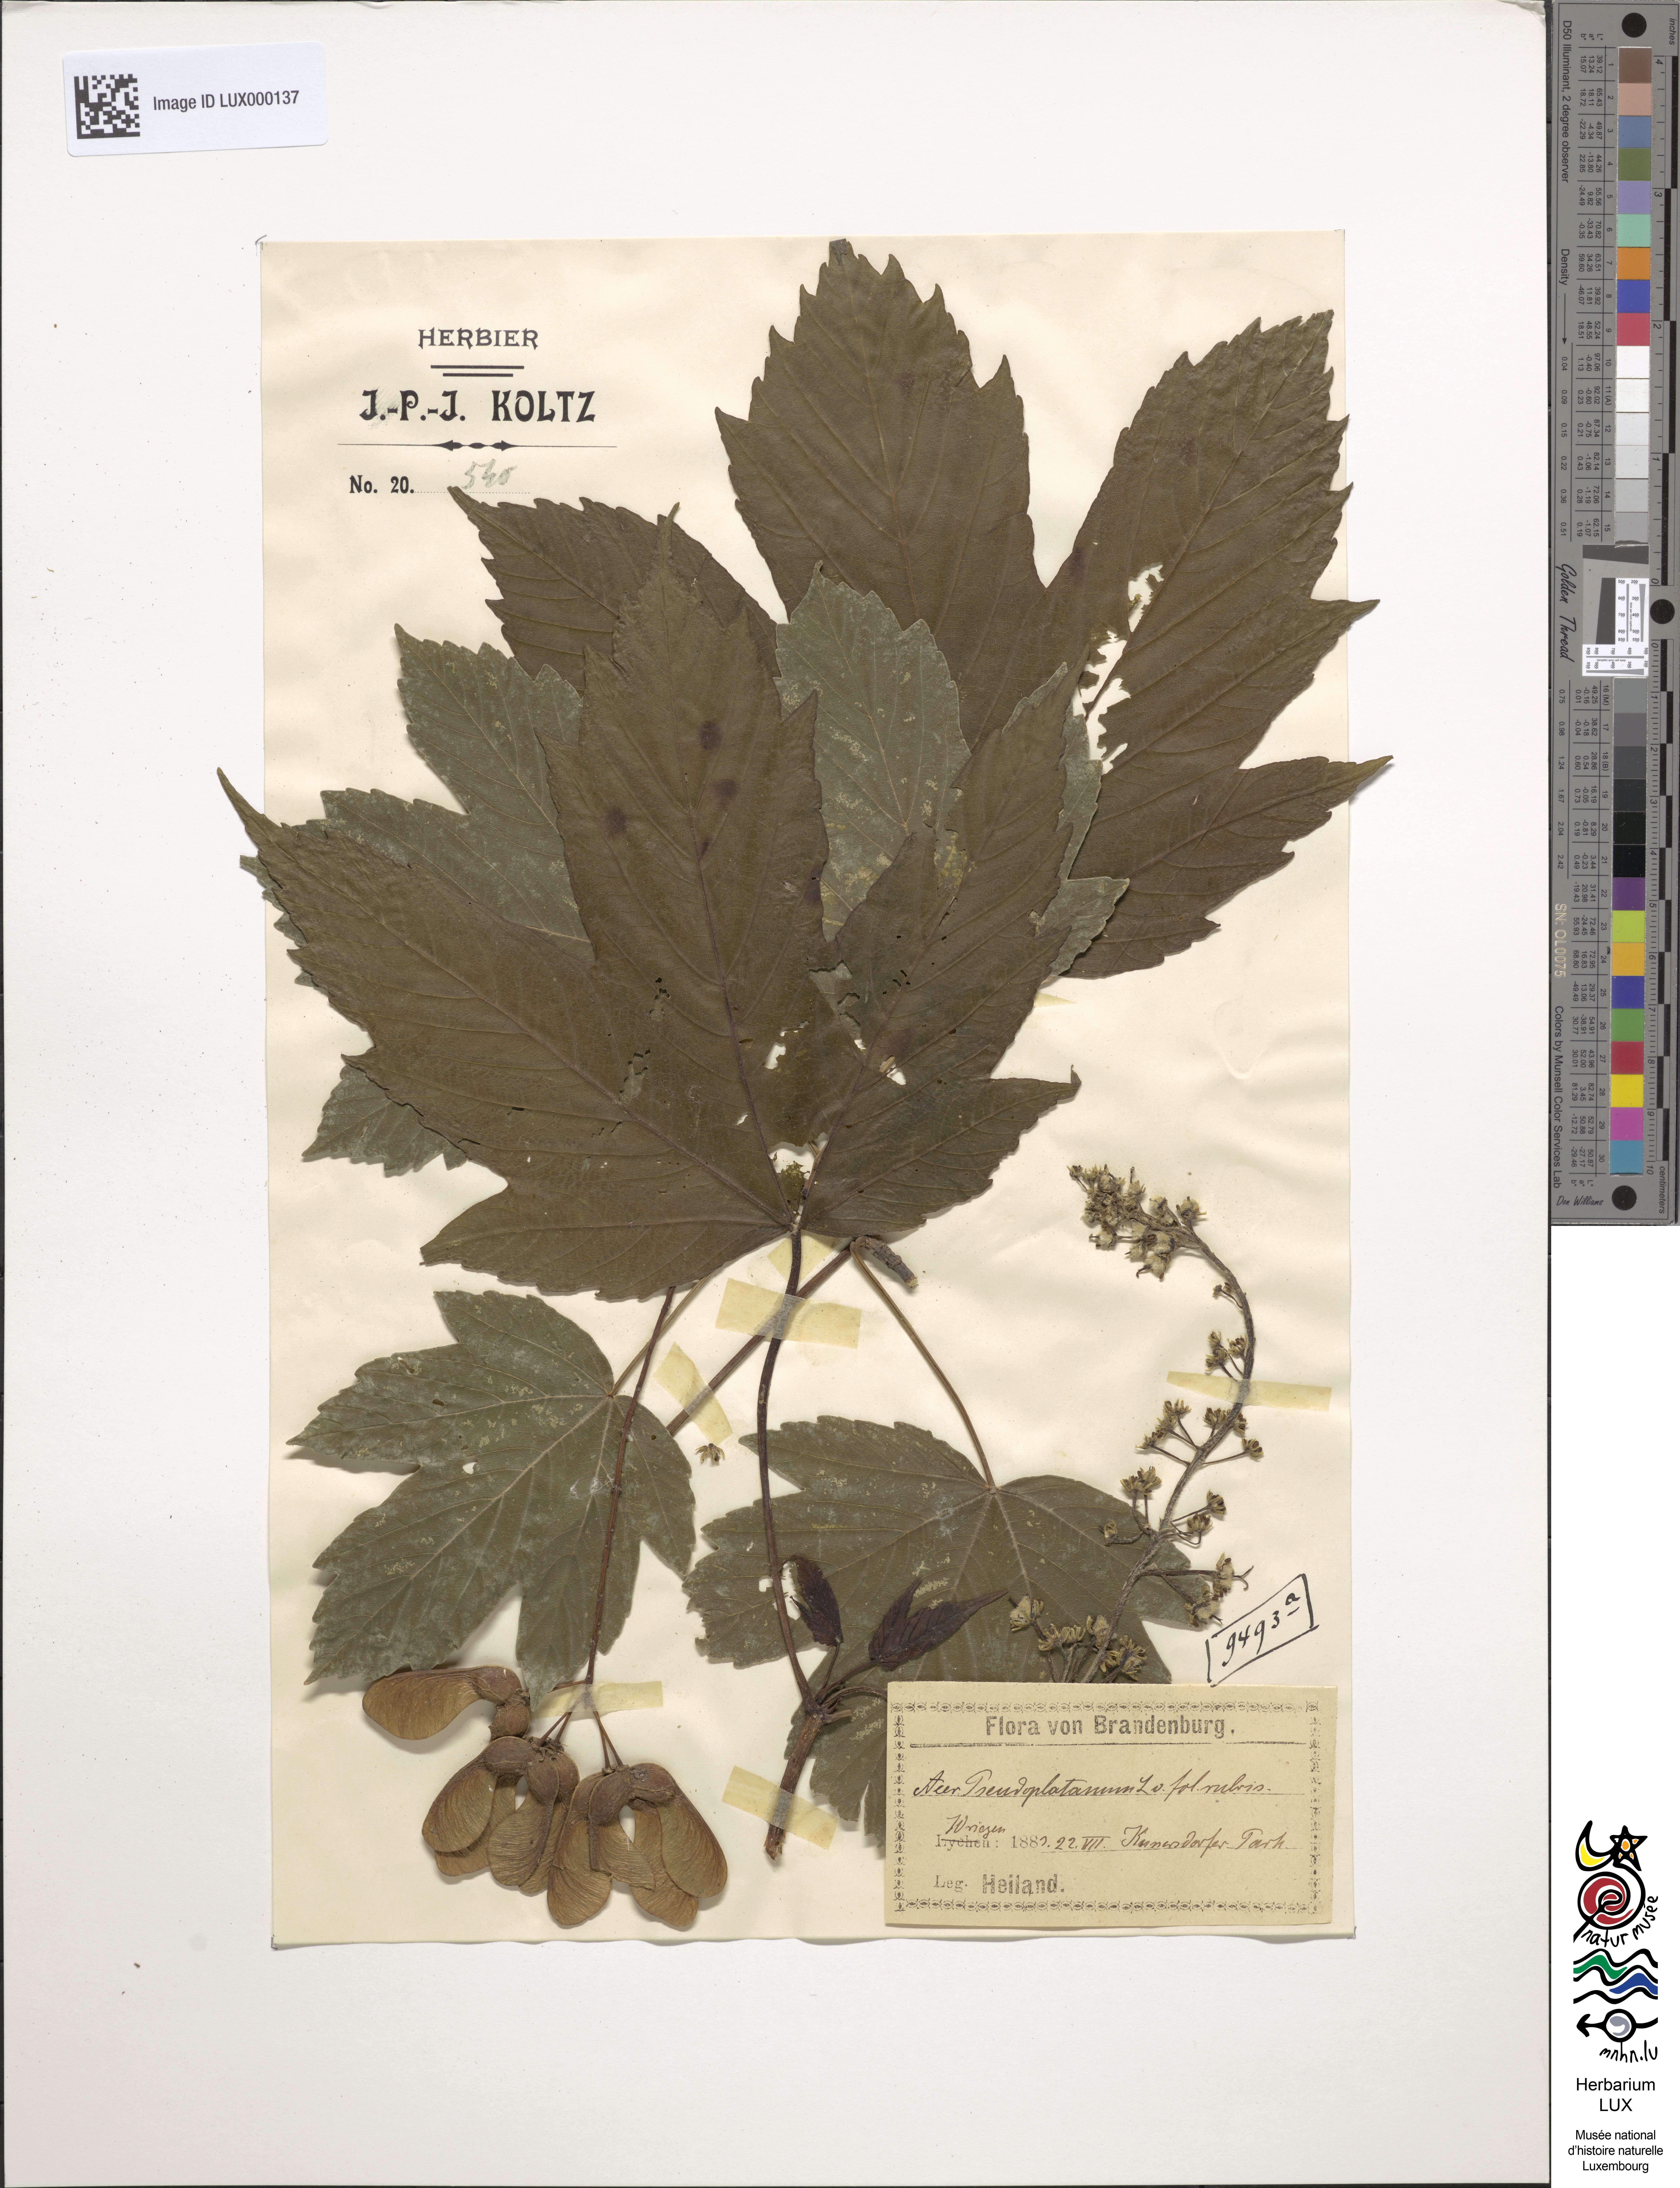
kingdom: Plantae
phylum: Tracheophyta
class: Magnoliopsida
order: Sapindales
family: Sapindaceae
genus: Acer
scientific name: Acer pseudoplatanus
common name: Sycamore
